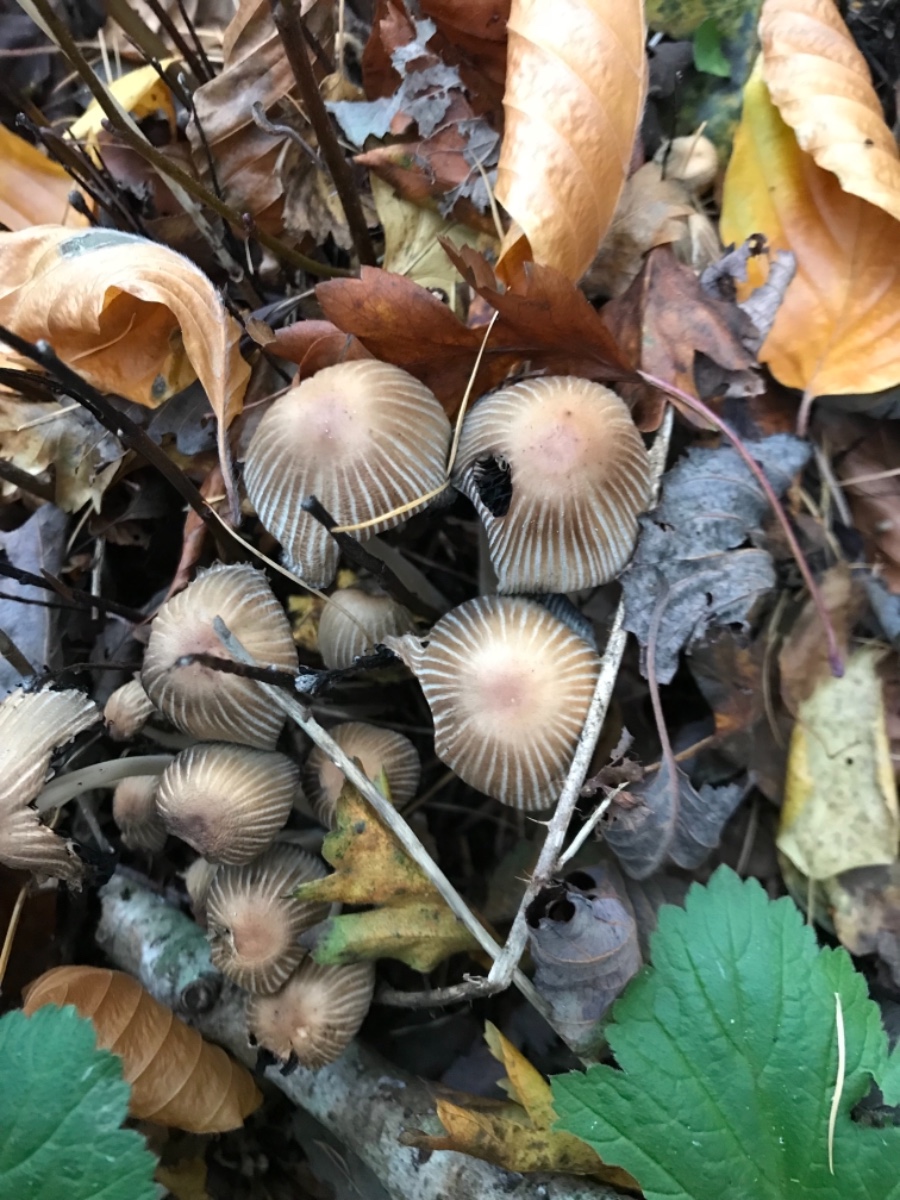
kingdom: Fungi
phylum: Basidiomycota
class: Agaricomycetes
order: Agaricales
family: Psathyrellaceae
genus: Coprinellus
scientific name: Coprinellus micaceus
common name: glimmer-blækhat
